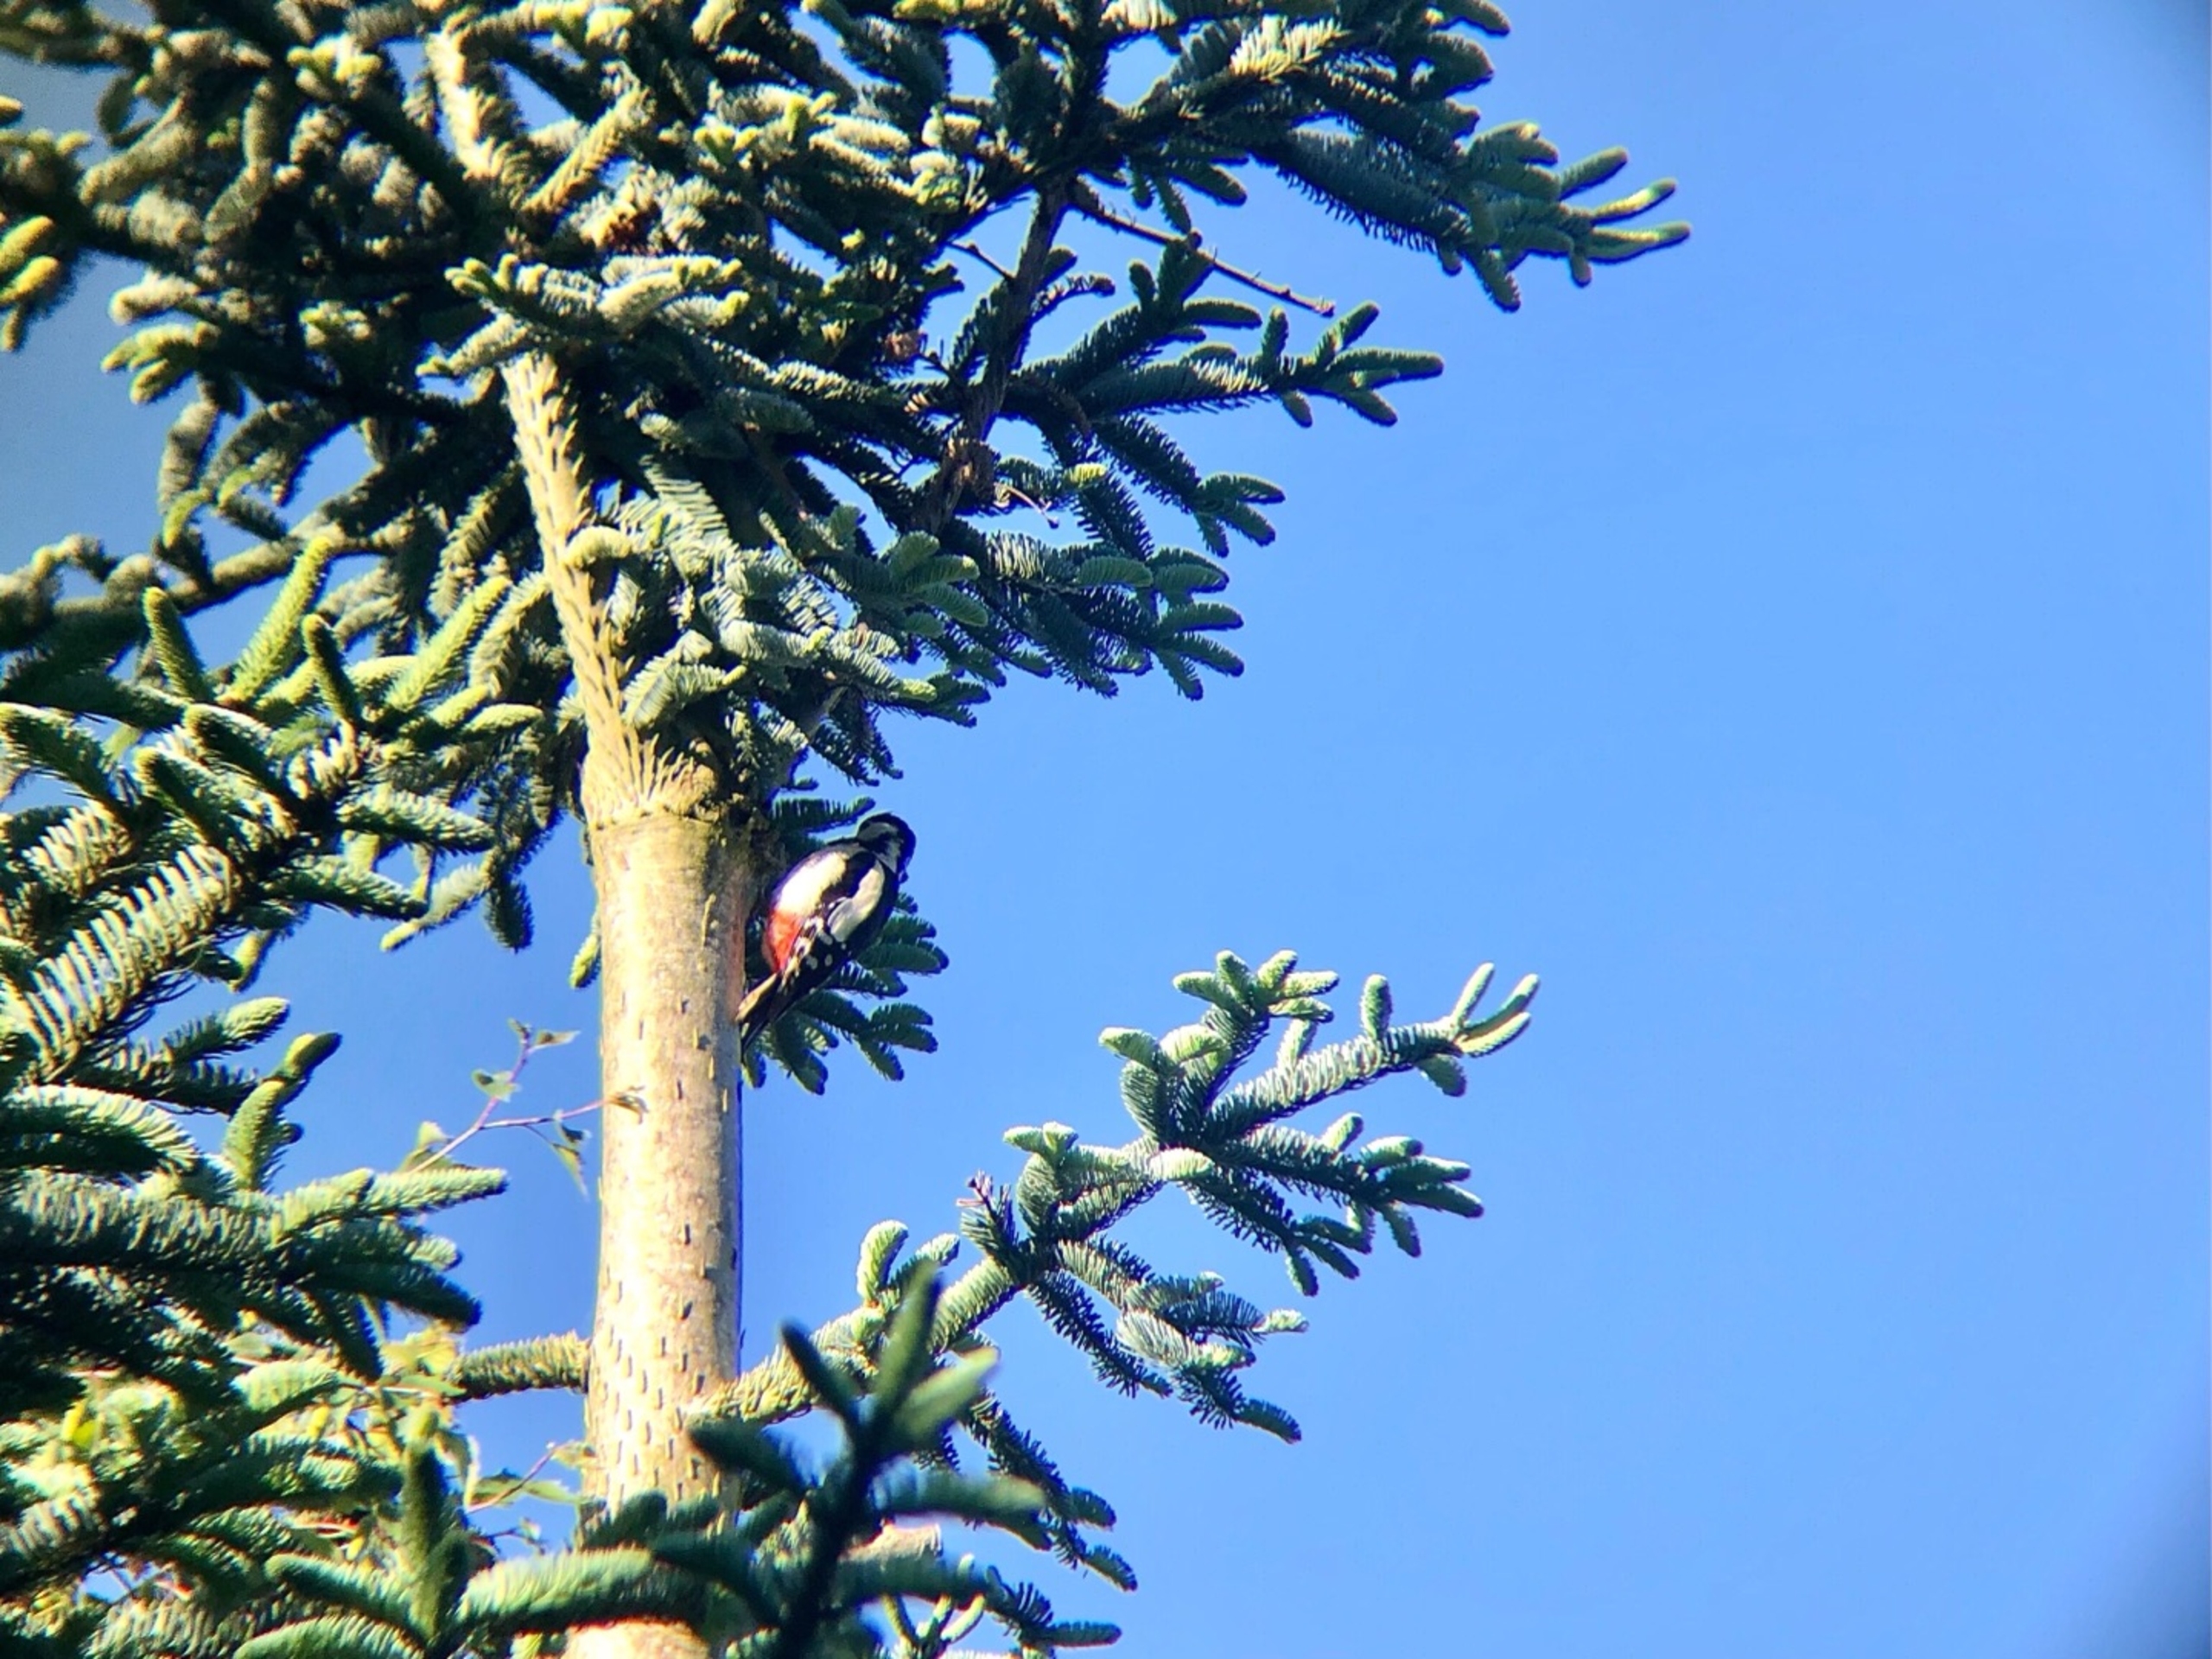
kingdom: Animalia
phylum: Chordata
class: Aves
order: Piciformes
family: Picidae
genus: Dendrocopos
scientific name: Dendrocopos major
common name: Stor flagspætte
